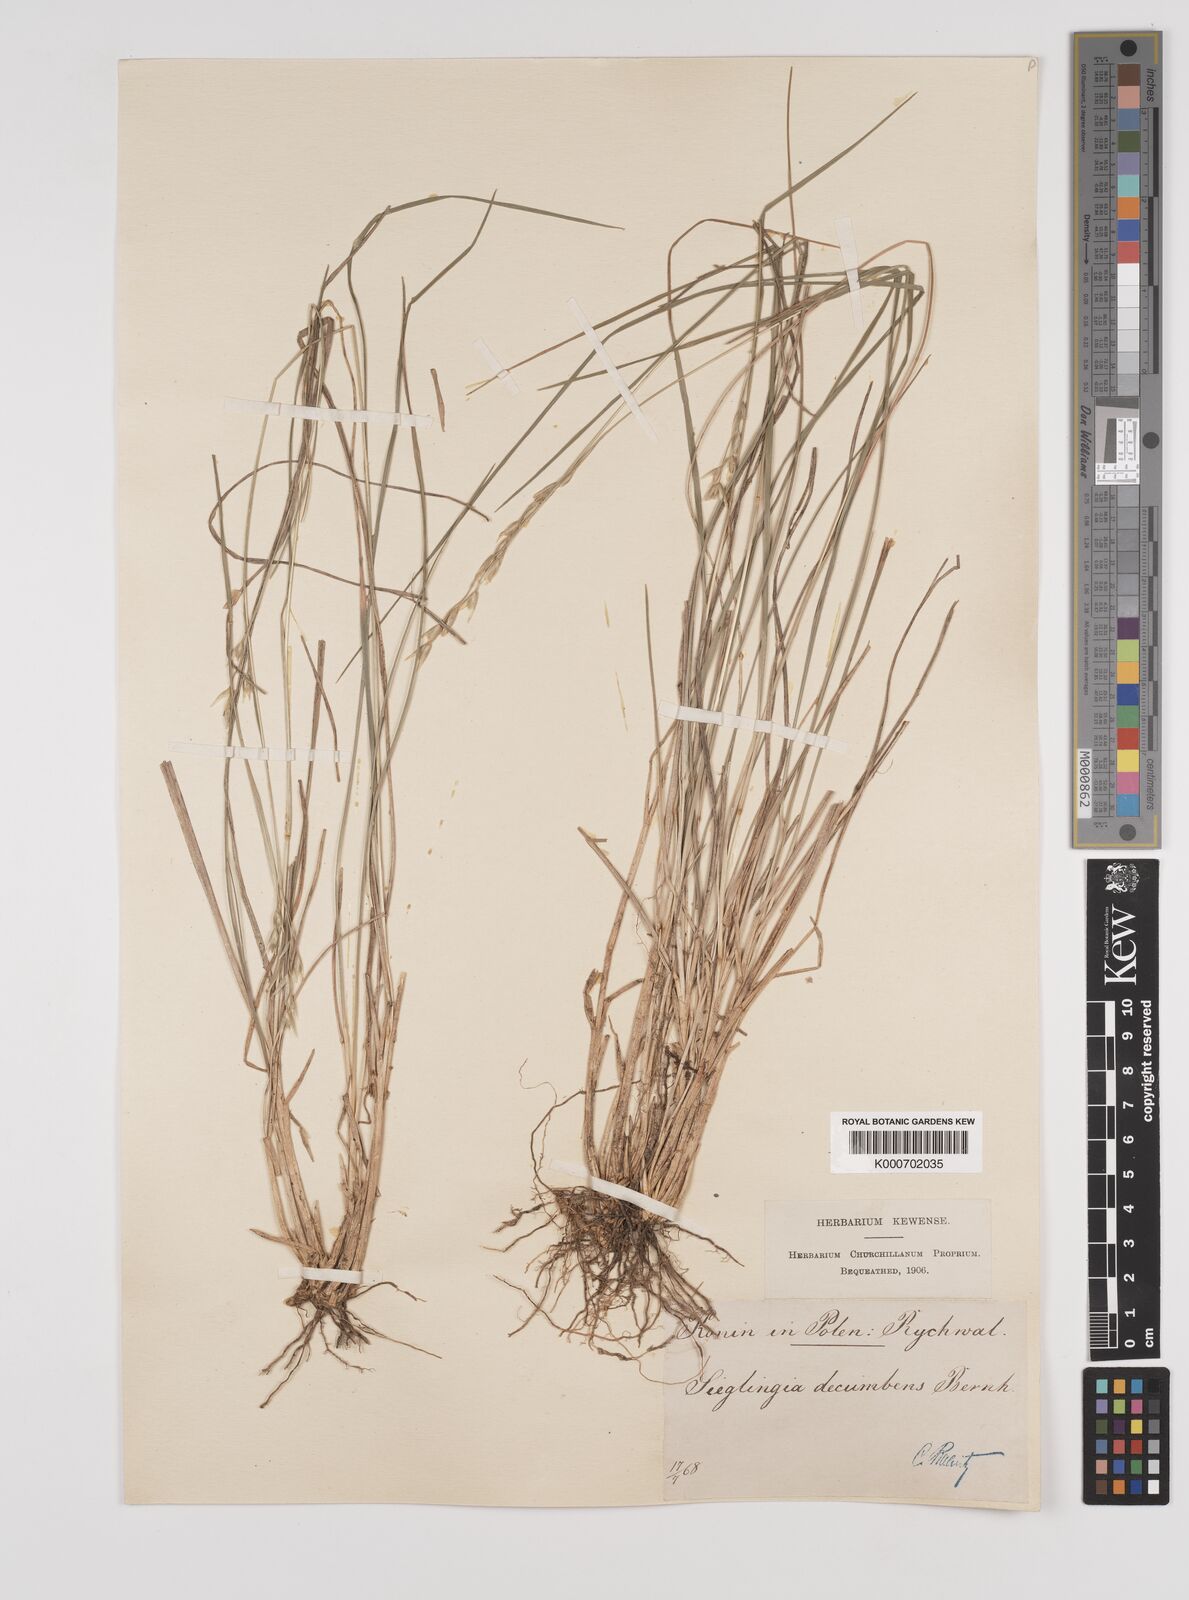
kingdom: Plantae
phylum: Tracheophyta
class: Liliopsida
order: Poales
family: Poaceae
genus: Danthonia
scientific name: Danthonia decumbens
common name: Common heathgrass
